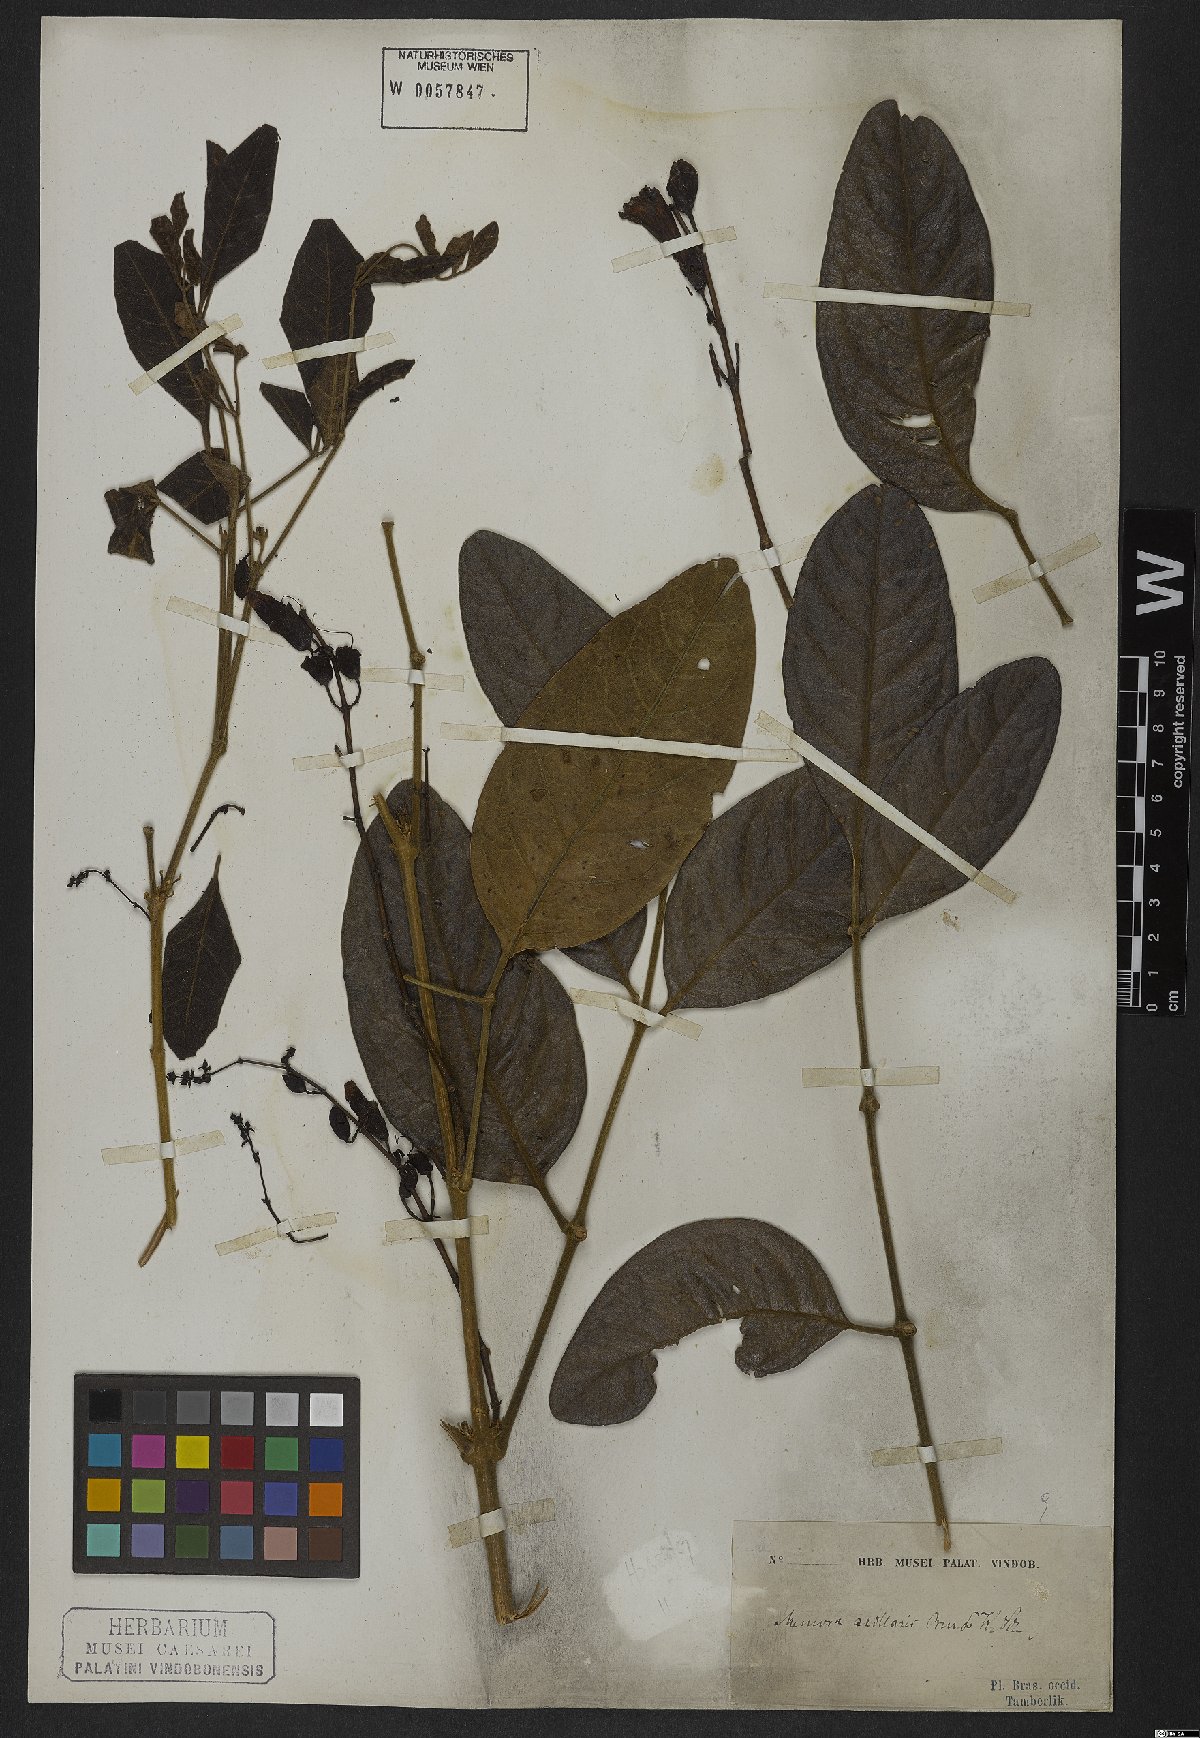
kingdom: Plantae
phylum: Tracheophyta
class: Magnoliopsida
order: Lamiales
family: Bignoniaceae
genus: Adenocalymma
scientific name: Adenocalymma axillare
